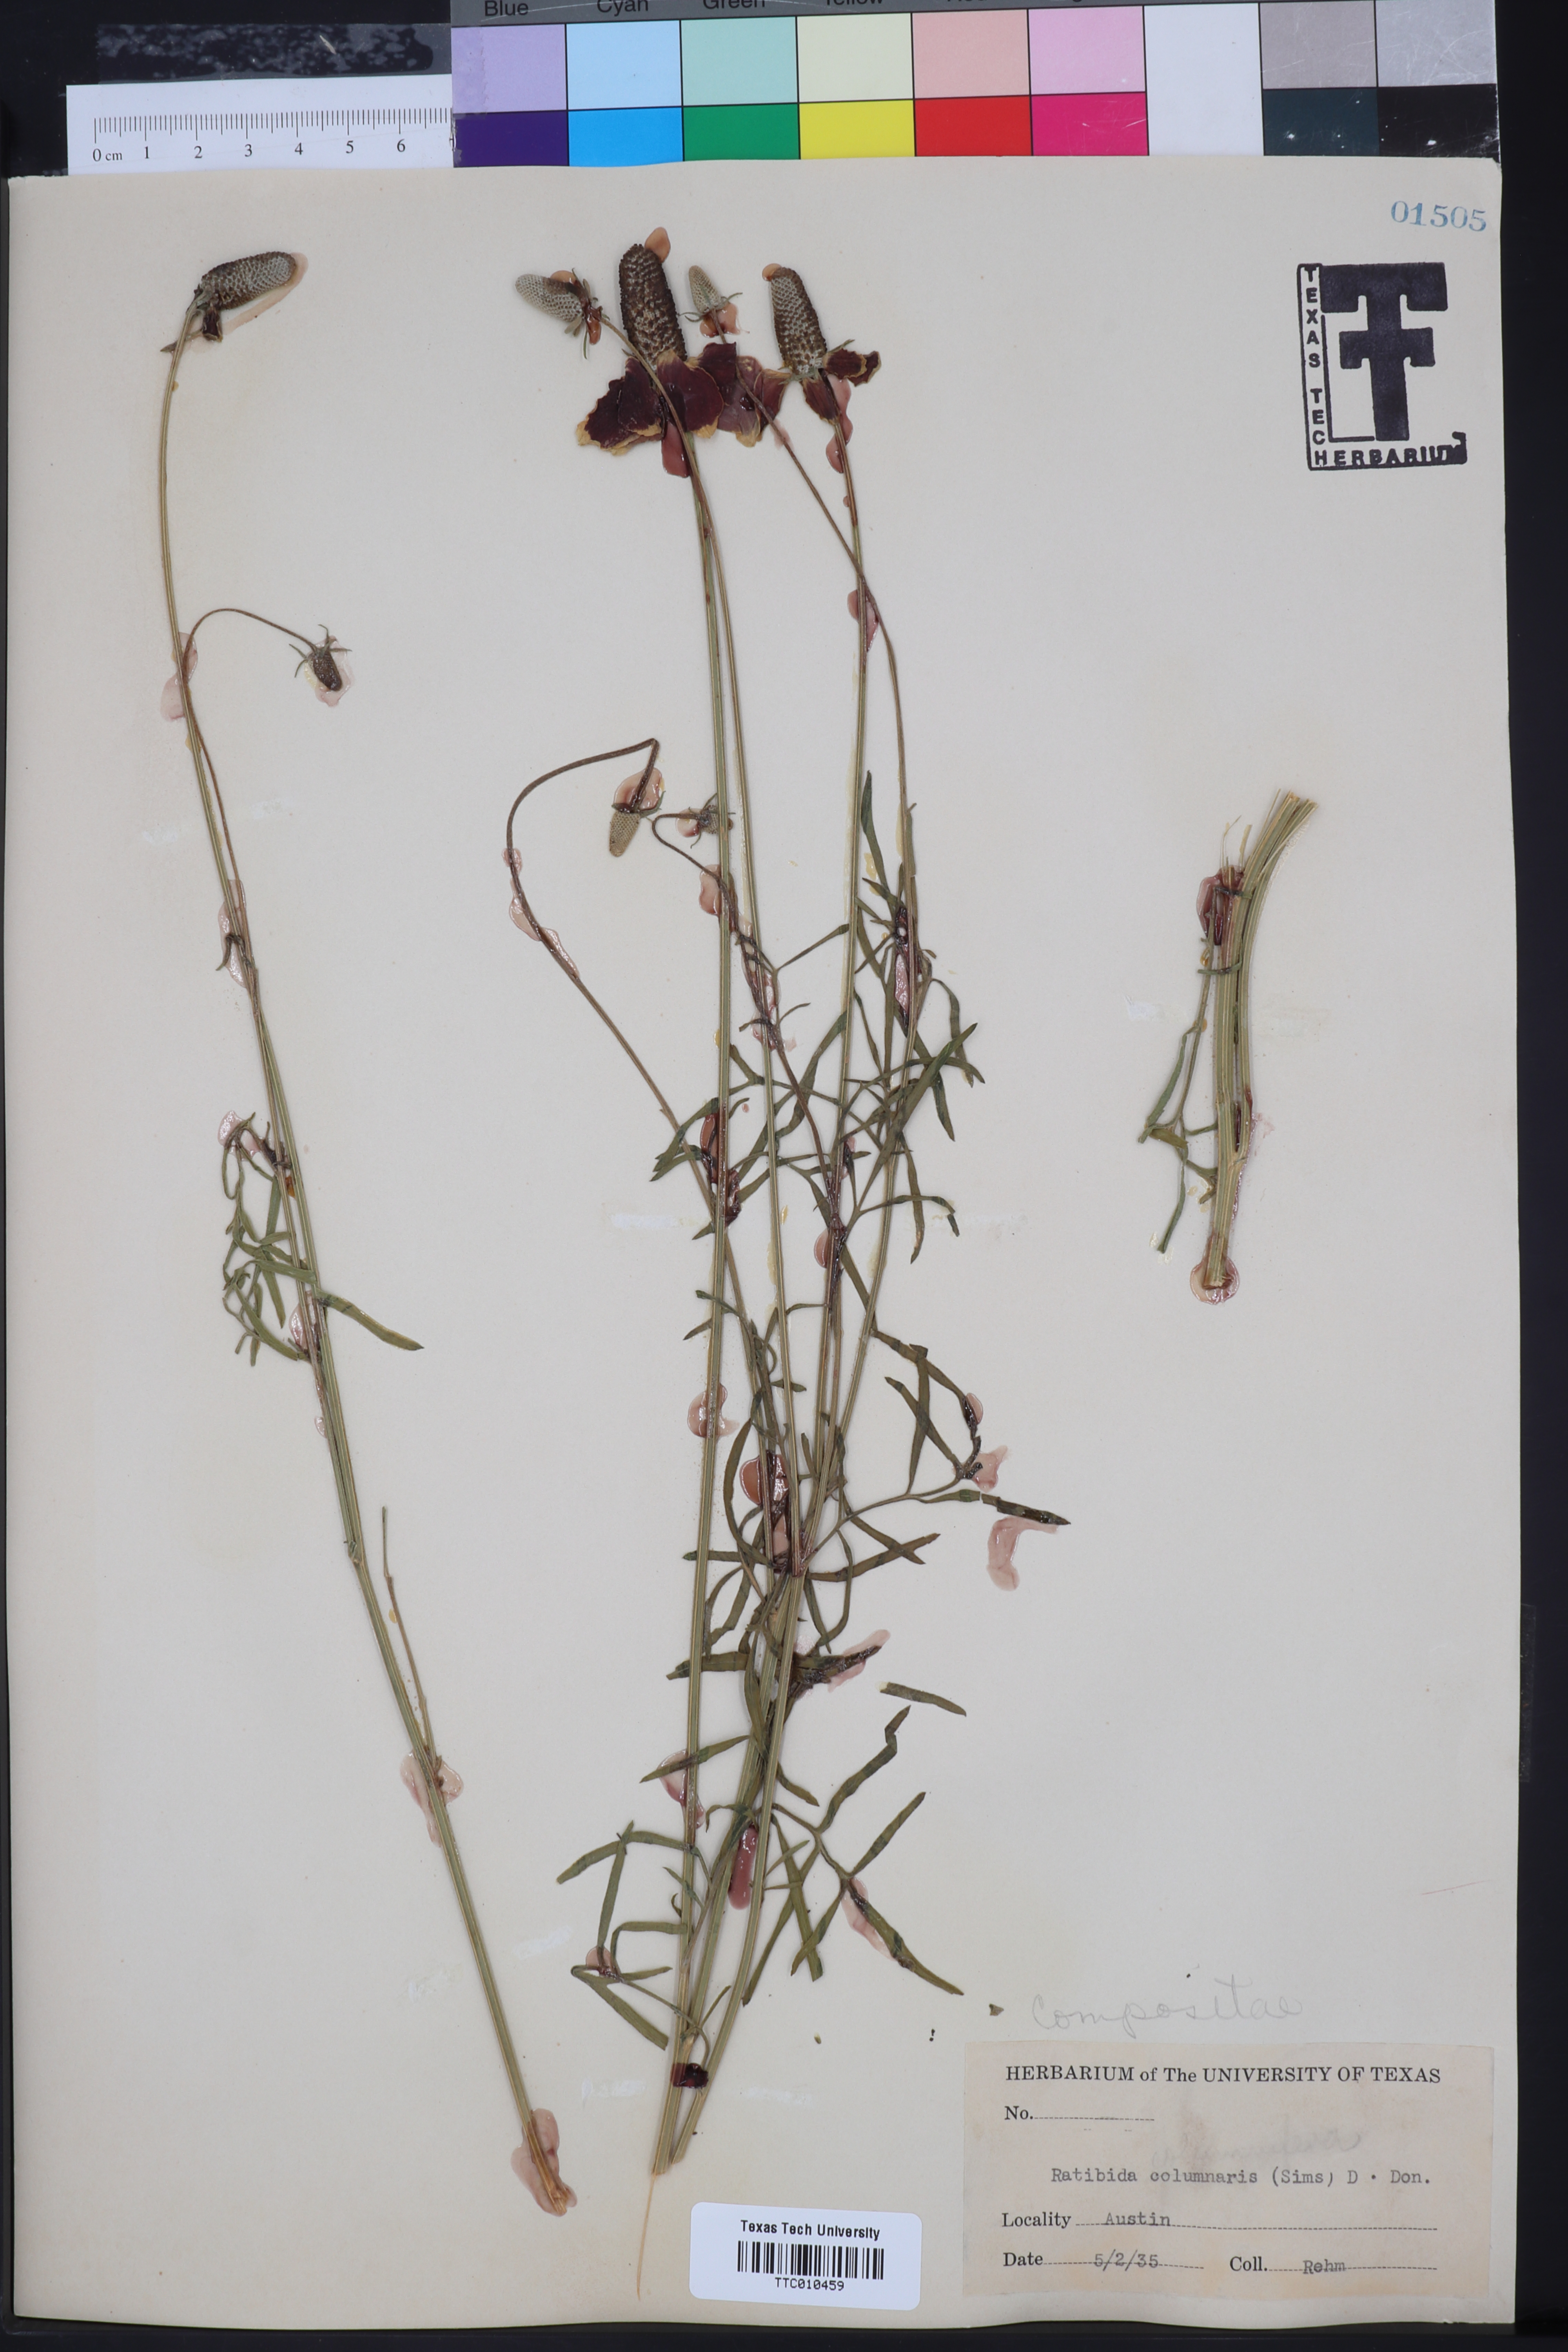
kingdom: Plantae
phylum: Tracheophyta
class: Magnoliopsida
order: Asterales
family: Asteraceae
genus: Ratibida
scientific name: Ratibida columnifera
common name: Prairie coneflower
